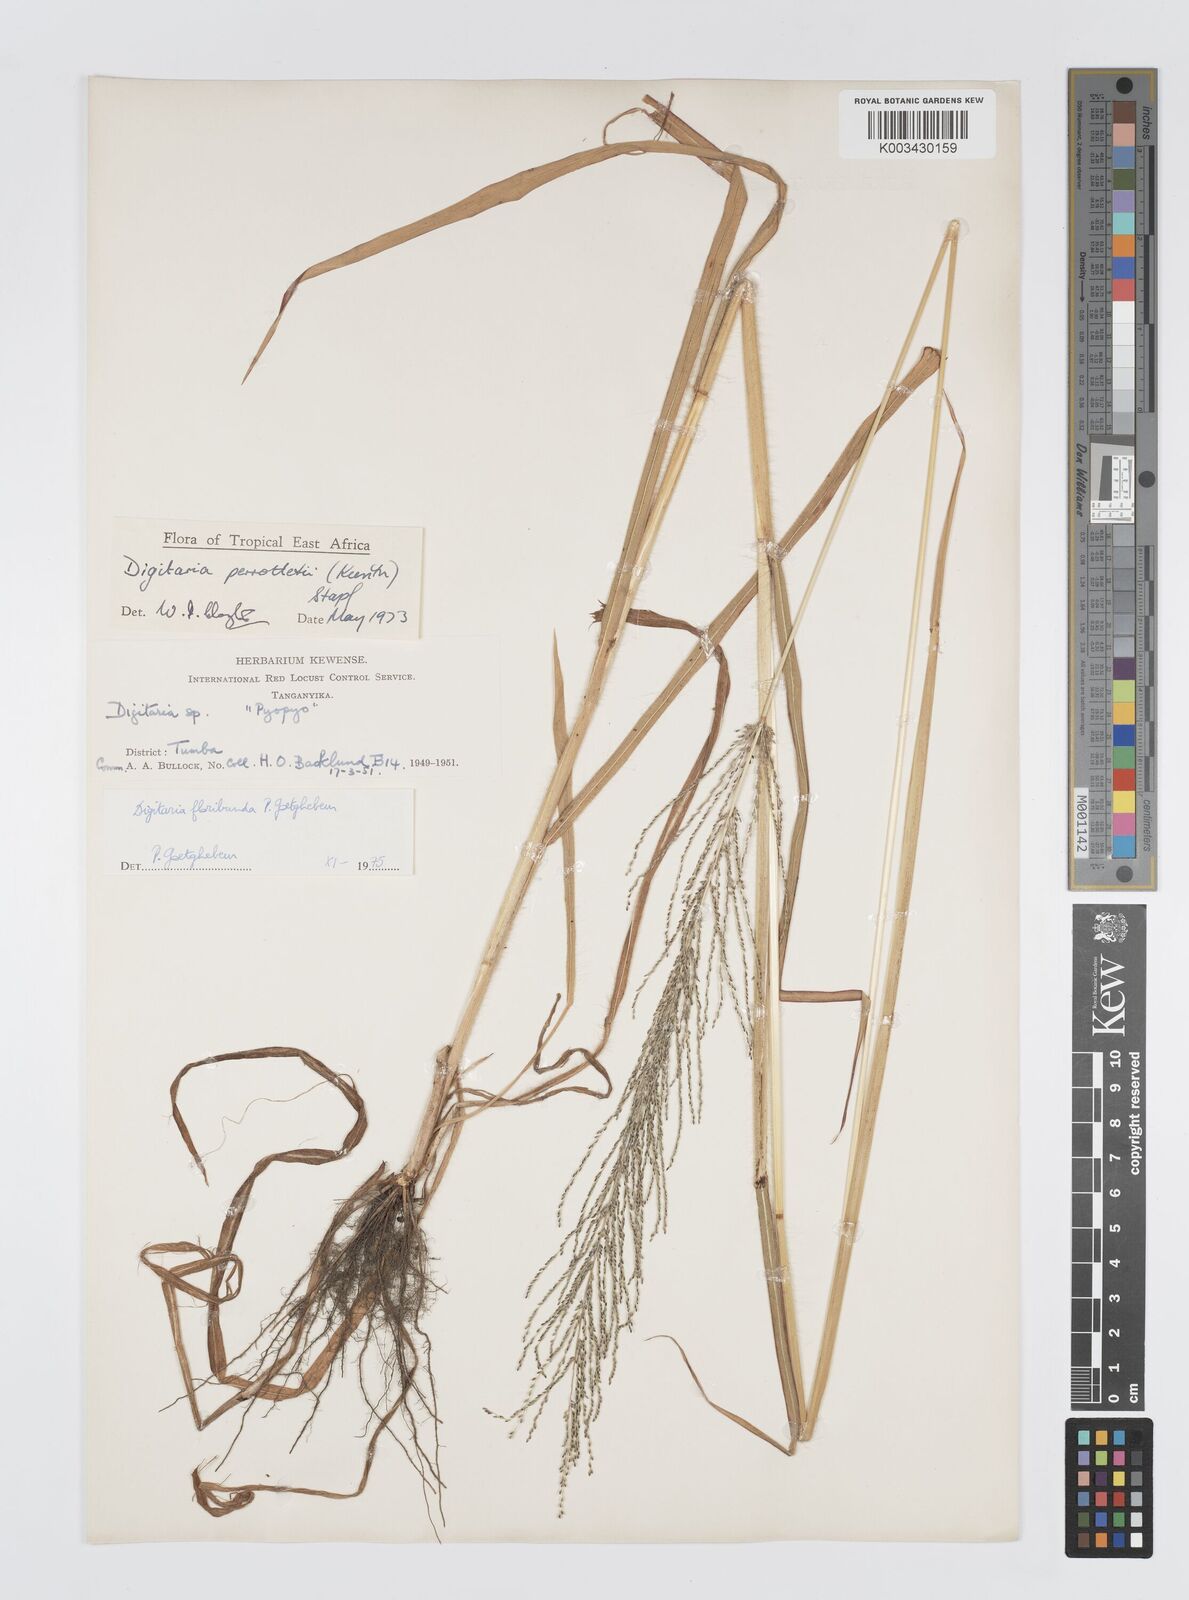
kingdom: Plantae
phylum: Tracheophyta
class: Liliopsida
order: Poales
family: Poaceae
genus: Digitaria
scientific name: Digitaria perrottetii
